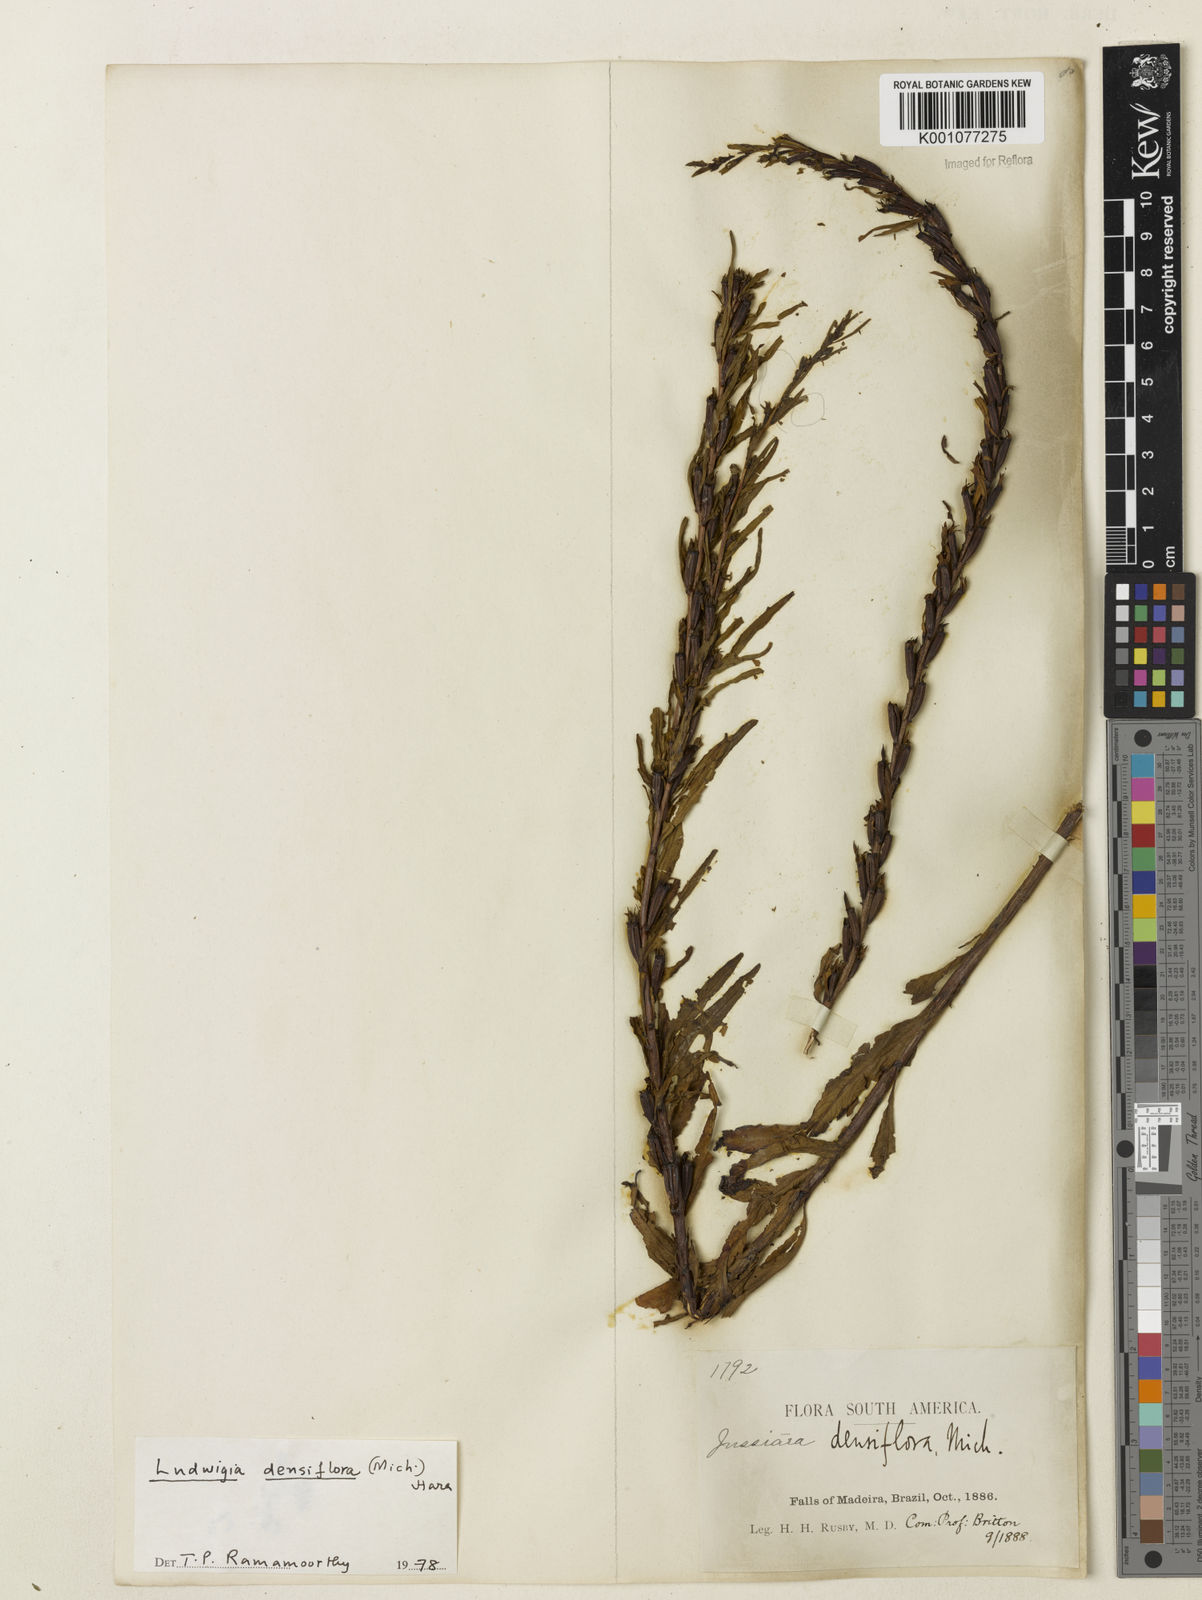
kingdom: Plantae
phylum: Tracheophyta
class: Magnoliopsida
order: Myrtales
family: Onagraceae
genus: Ludwigia
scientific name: Ludwigia densiflora
